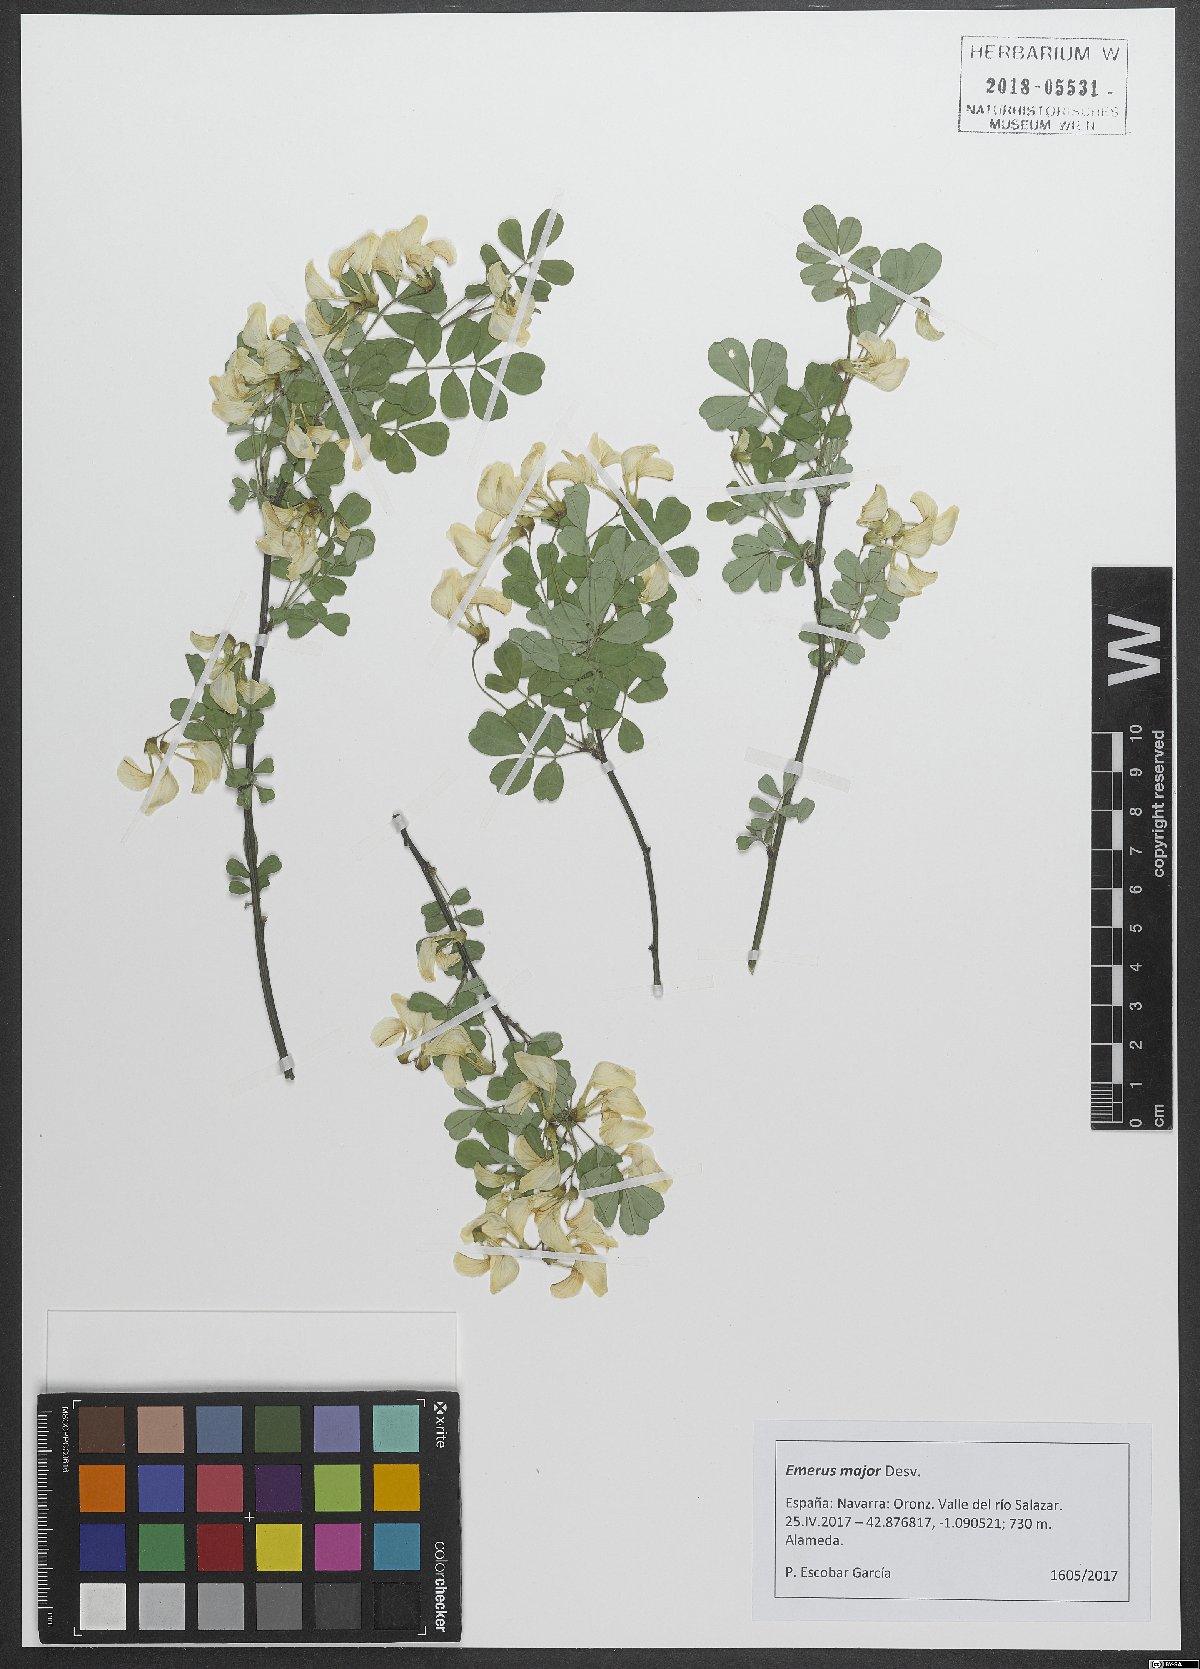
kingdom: Plantae
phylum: Tracheophyta
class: Magnoliopsida
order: Fabales
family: Fabaceae
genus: Hippocrepis
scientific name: Hippocrepis emerus
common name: Scorpion senna
